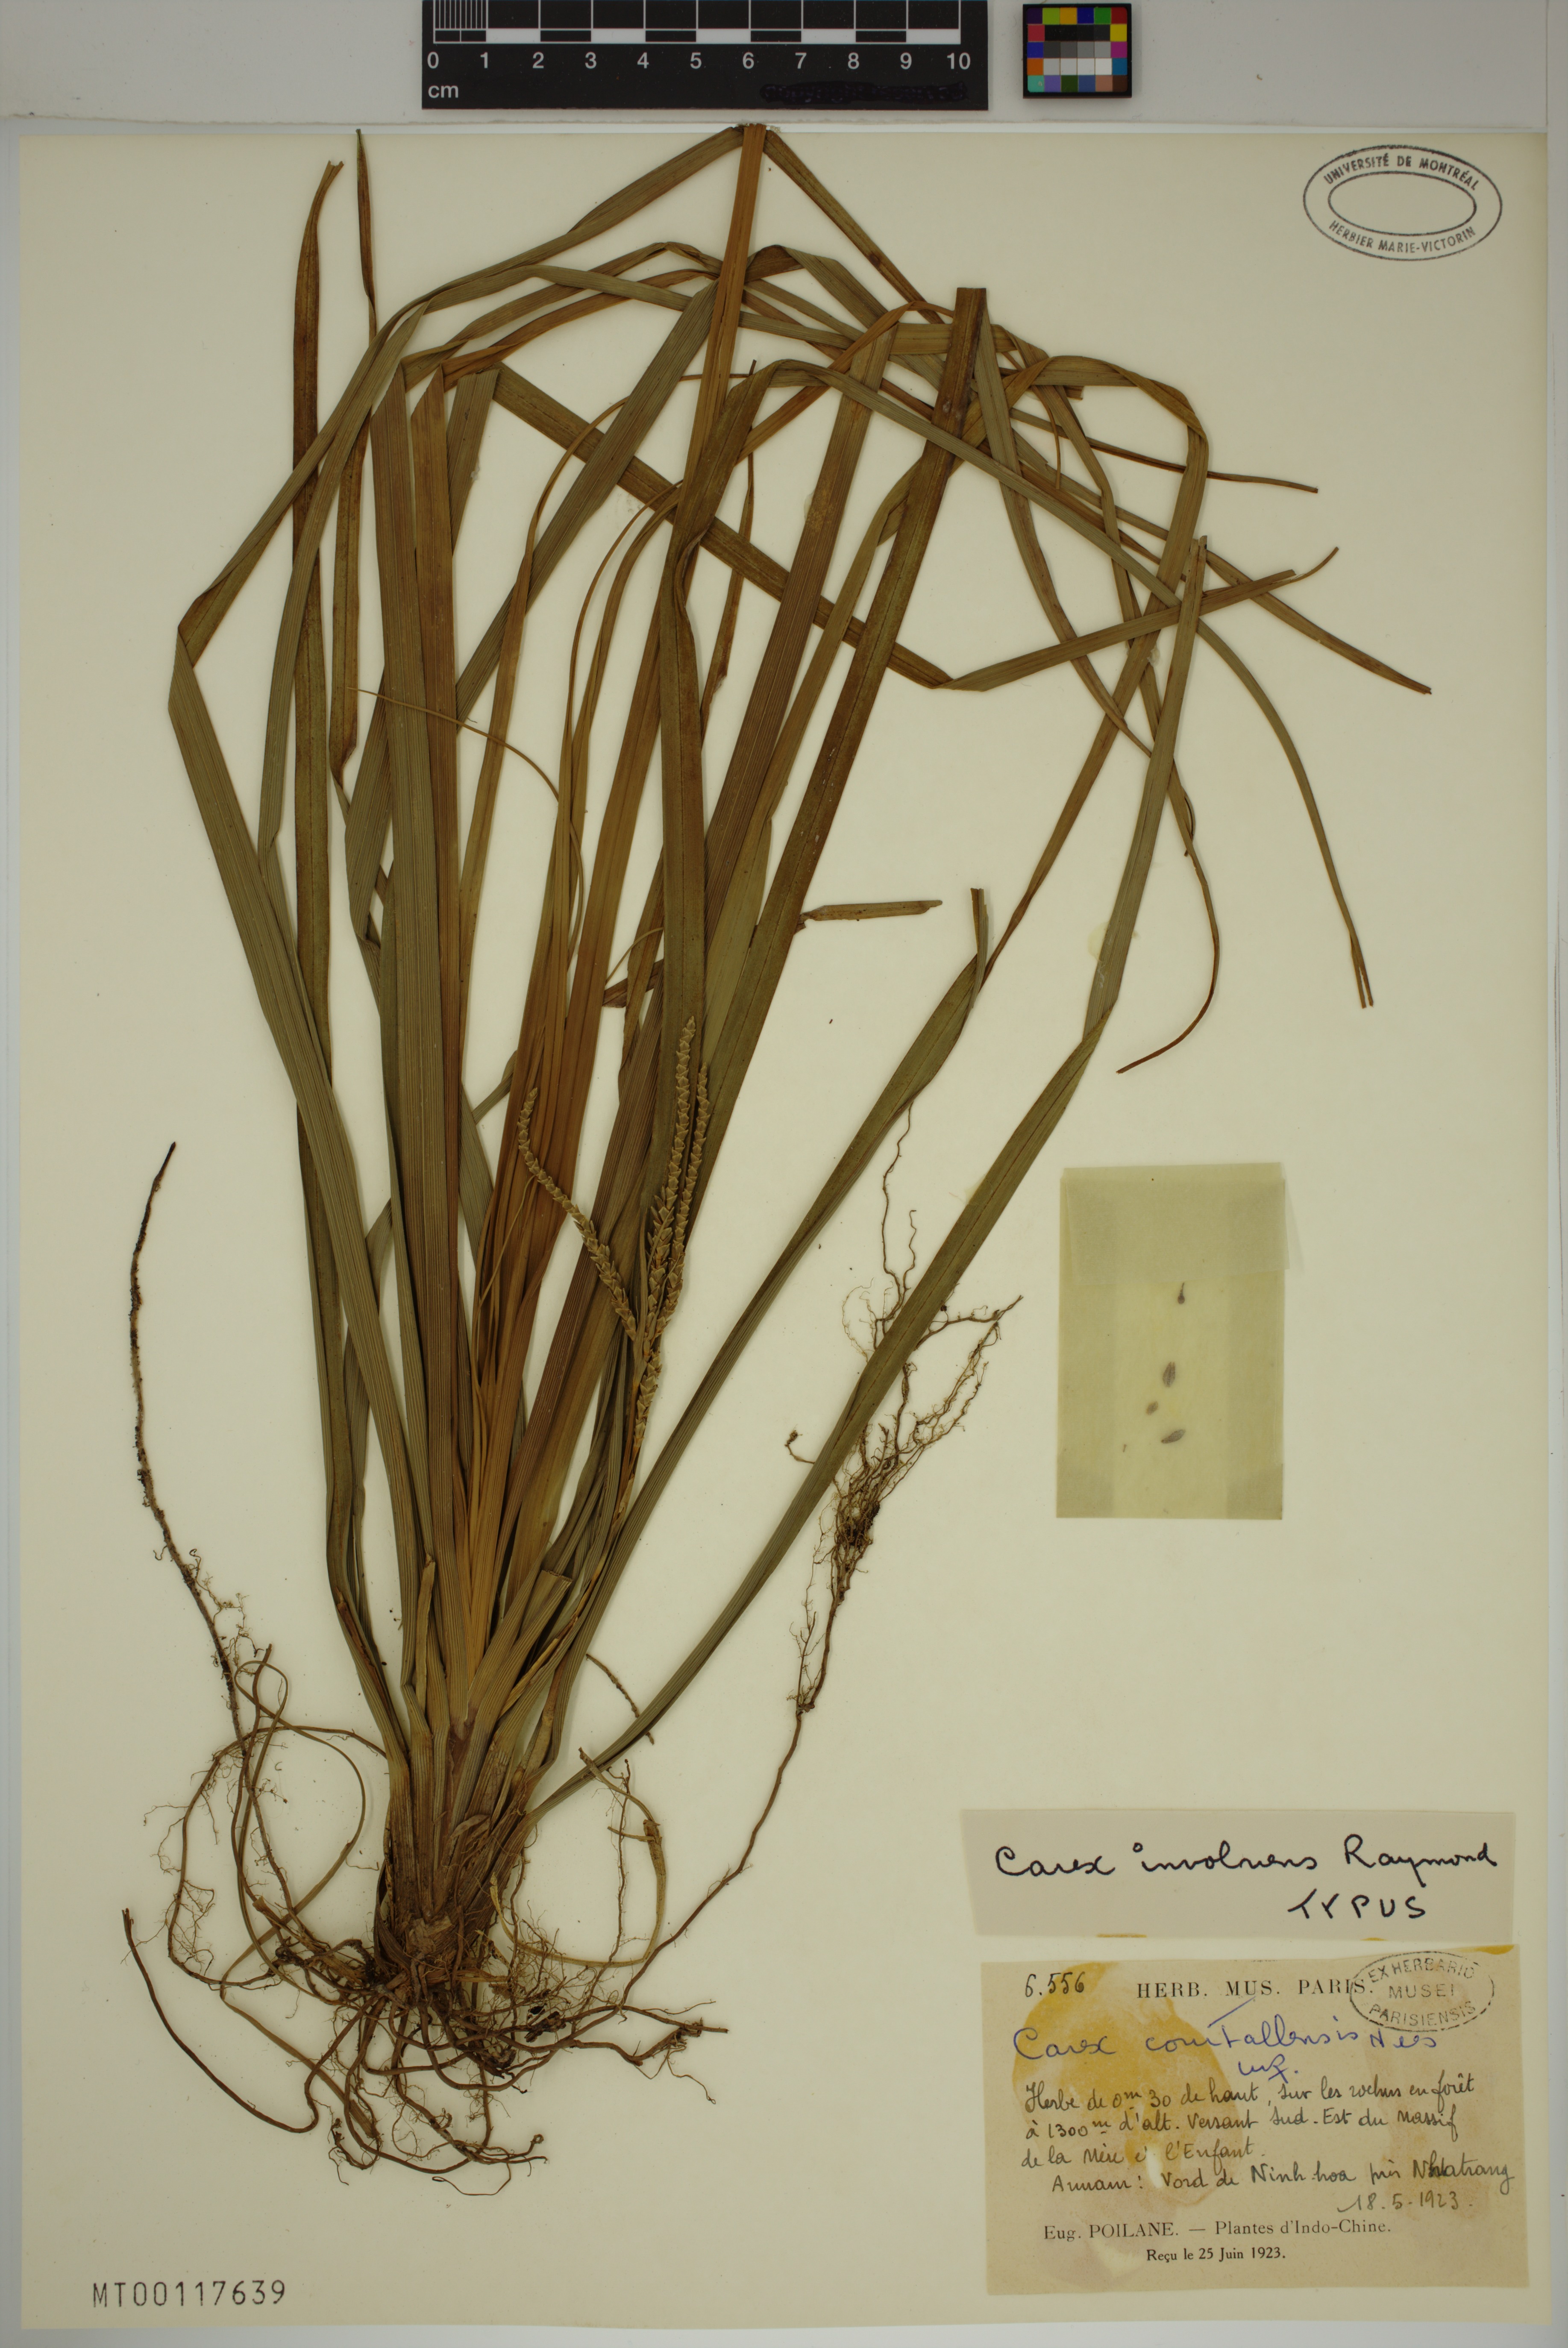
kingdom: Plantae
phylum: Tracheophyta
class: Liliopsida
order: Poales
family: Cyperaceae
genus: Carex
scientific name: Carex
